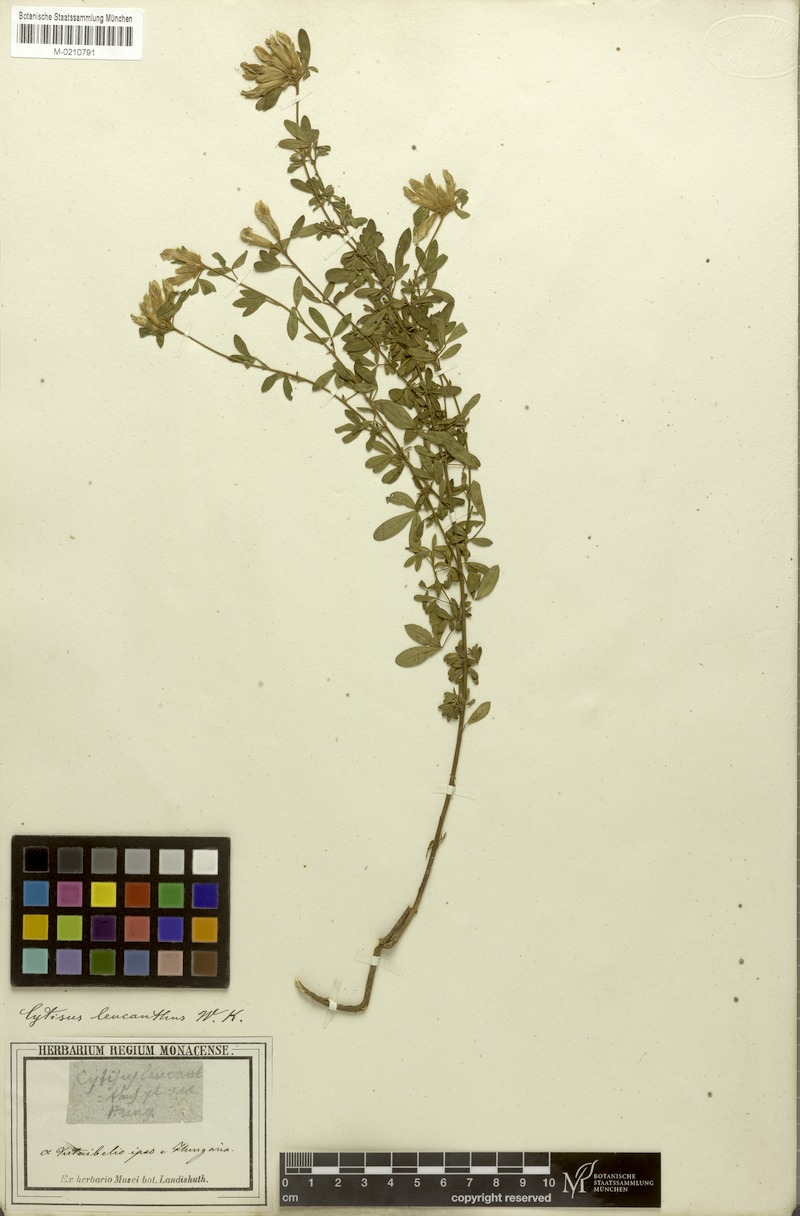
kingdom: Plantae
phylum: Tracheophyta
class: Magnoliopsida
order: Fabales
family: Fabaceae
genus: Chamaecytisus
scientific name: Chamaecytisus albus
